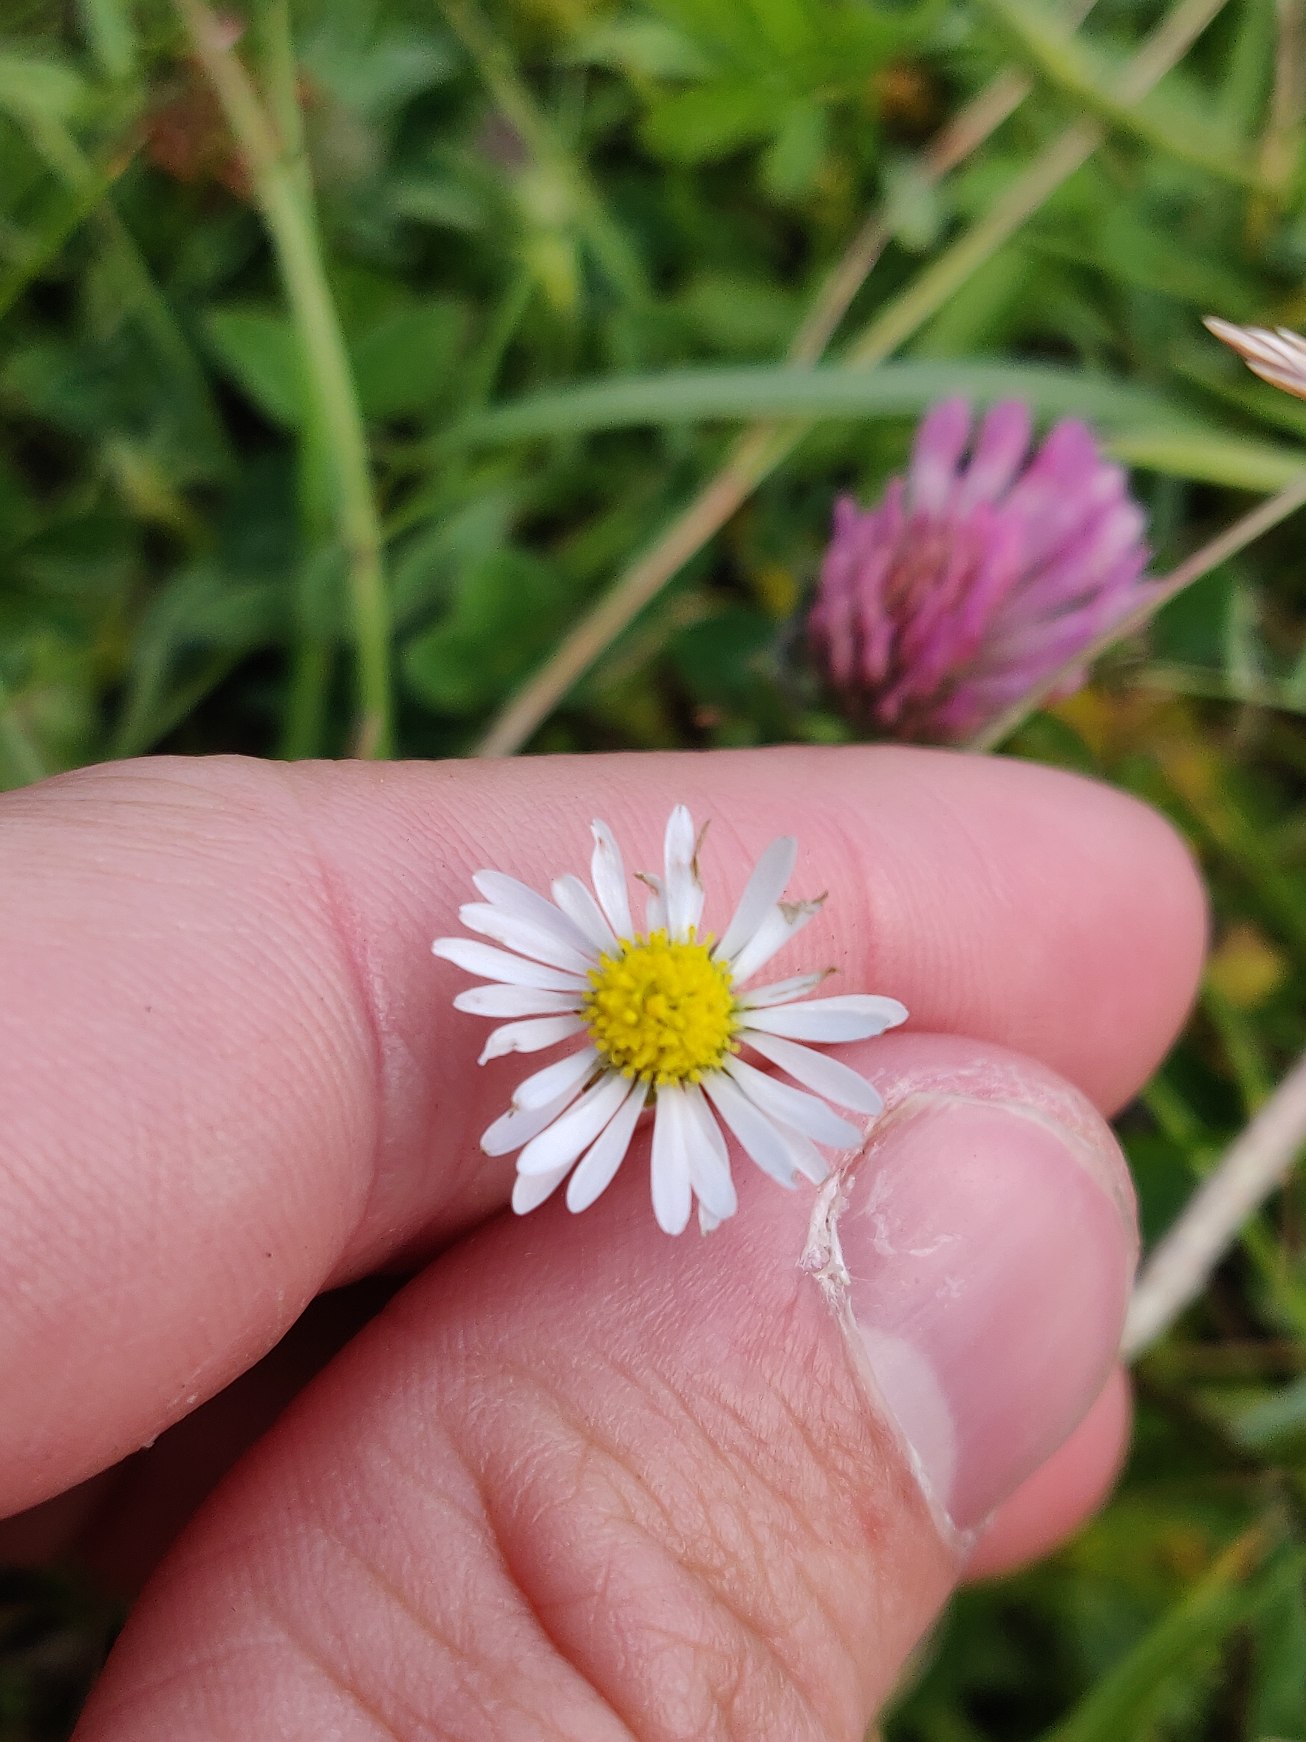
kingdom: Plantae
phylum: Tracheophyta
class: Magnoliopsida
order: Asterales
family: Asteraceae
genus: Bellis
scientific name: Bellis perennis
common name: Tusindfryd
